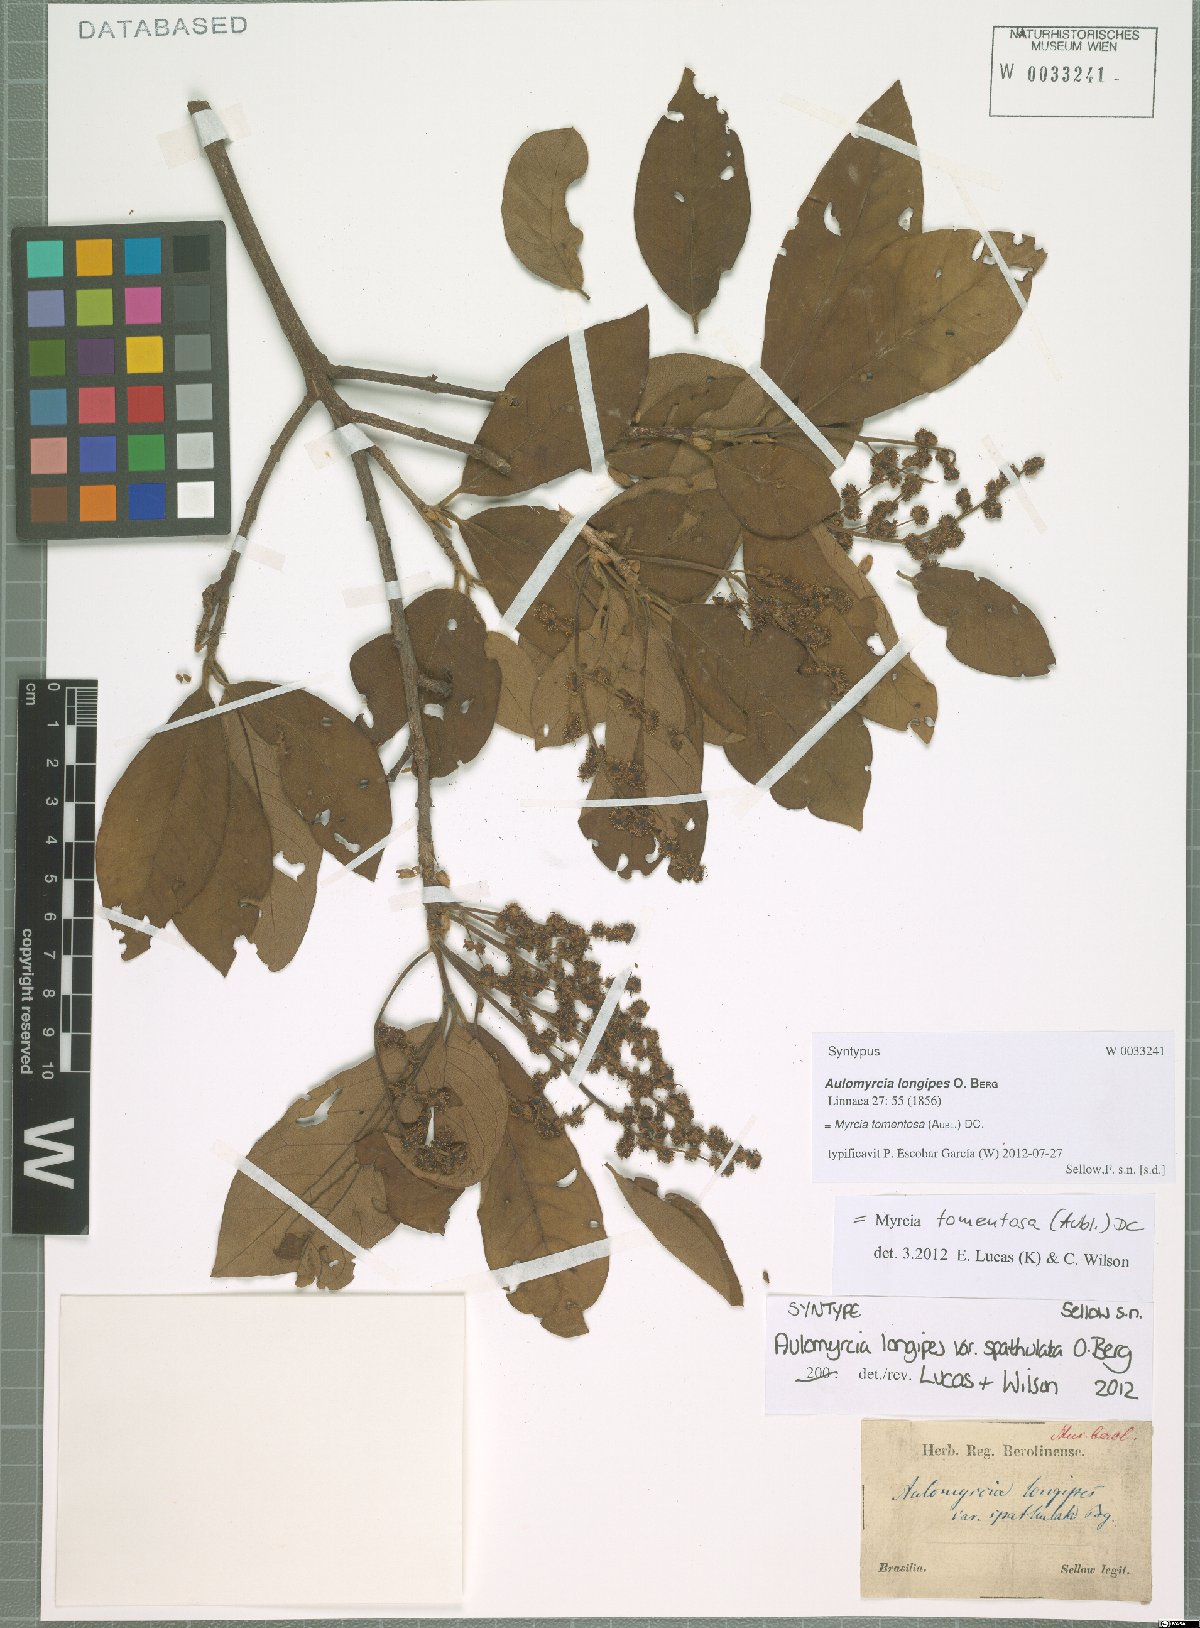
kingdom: Plantae
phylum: Tracheophyta
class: Magnoliopsida
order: Myrtales
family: Myrtaceae
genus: Myrcia
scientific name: Myrcia tomentosa
